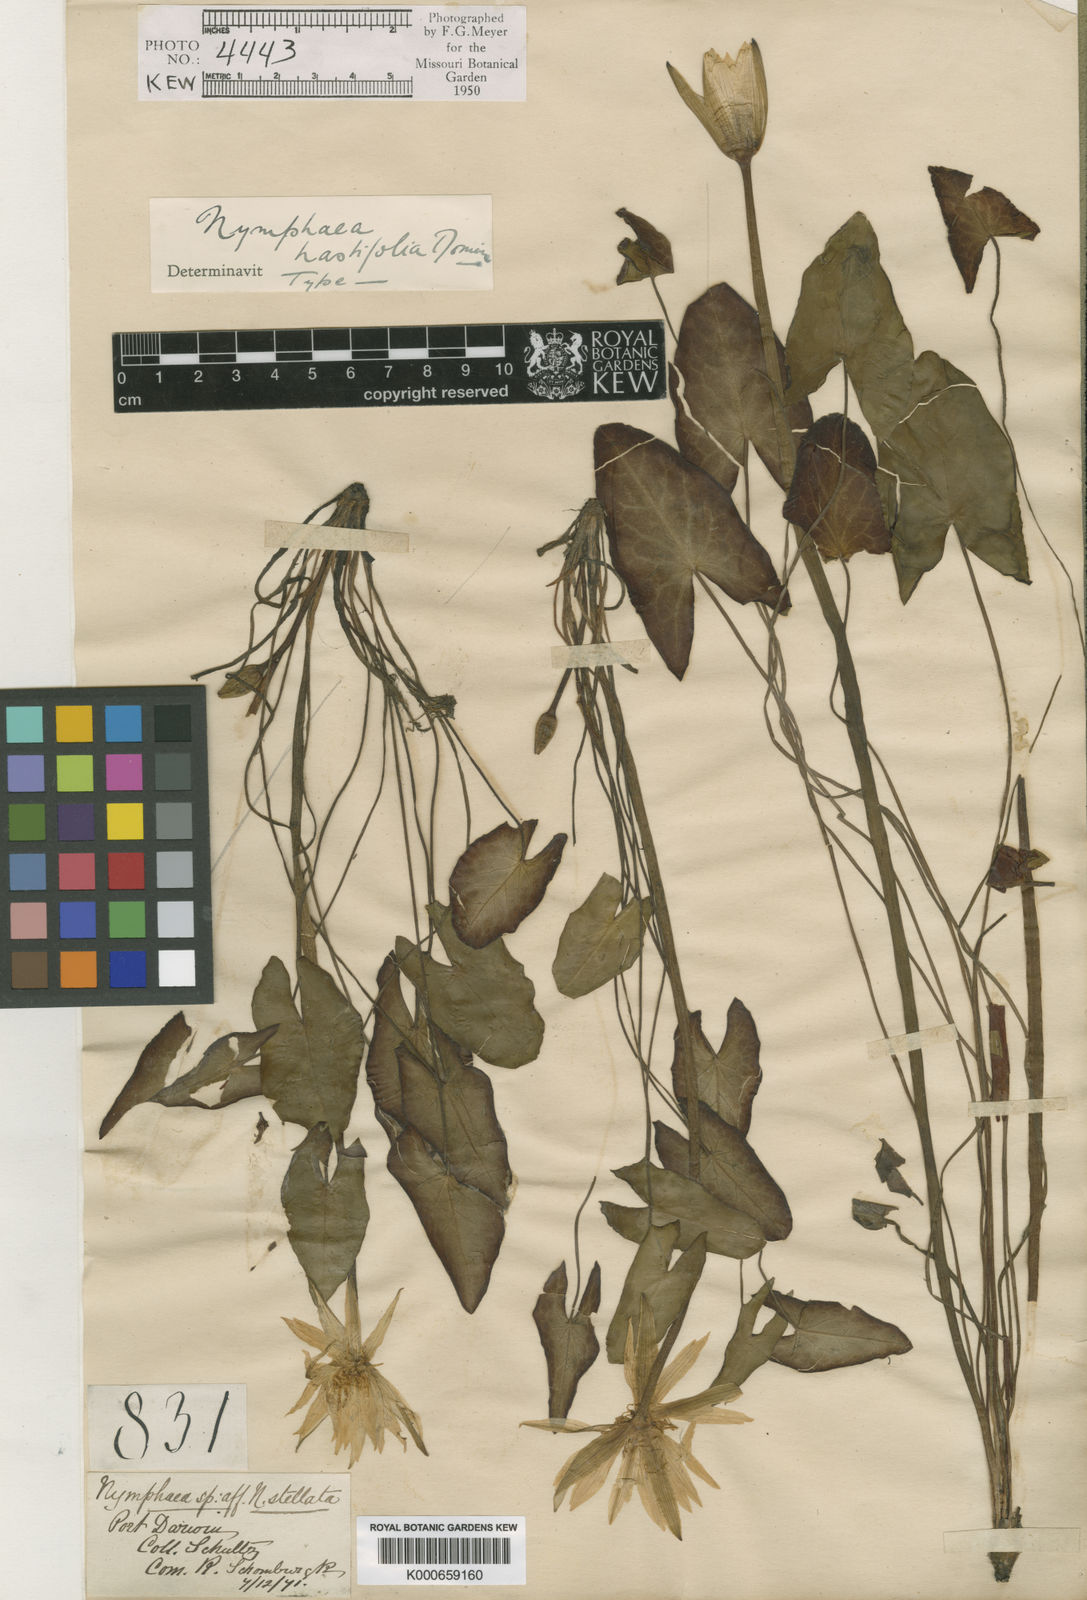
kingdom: Plantae
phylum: Tracheophyta
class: Magnoliopsida
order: Nymphaeales
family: Nymphaeaceae
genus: Nymphaea
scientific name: Nymphaea hastifolia
